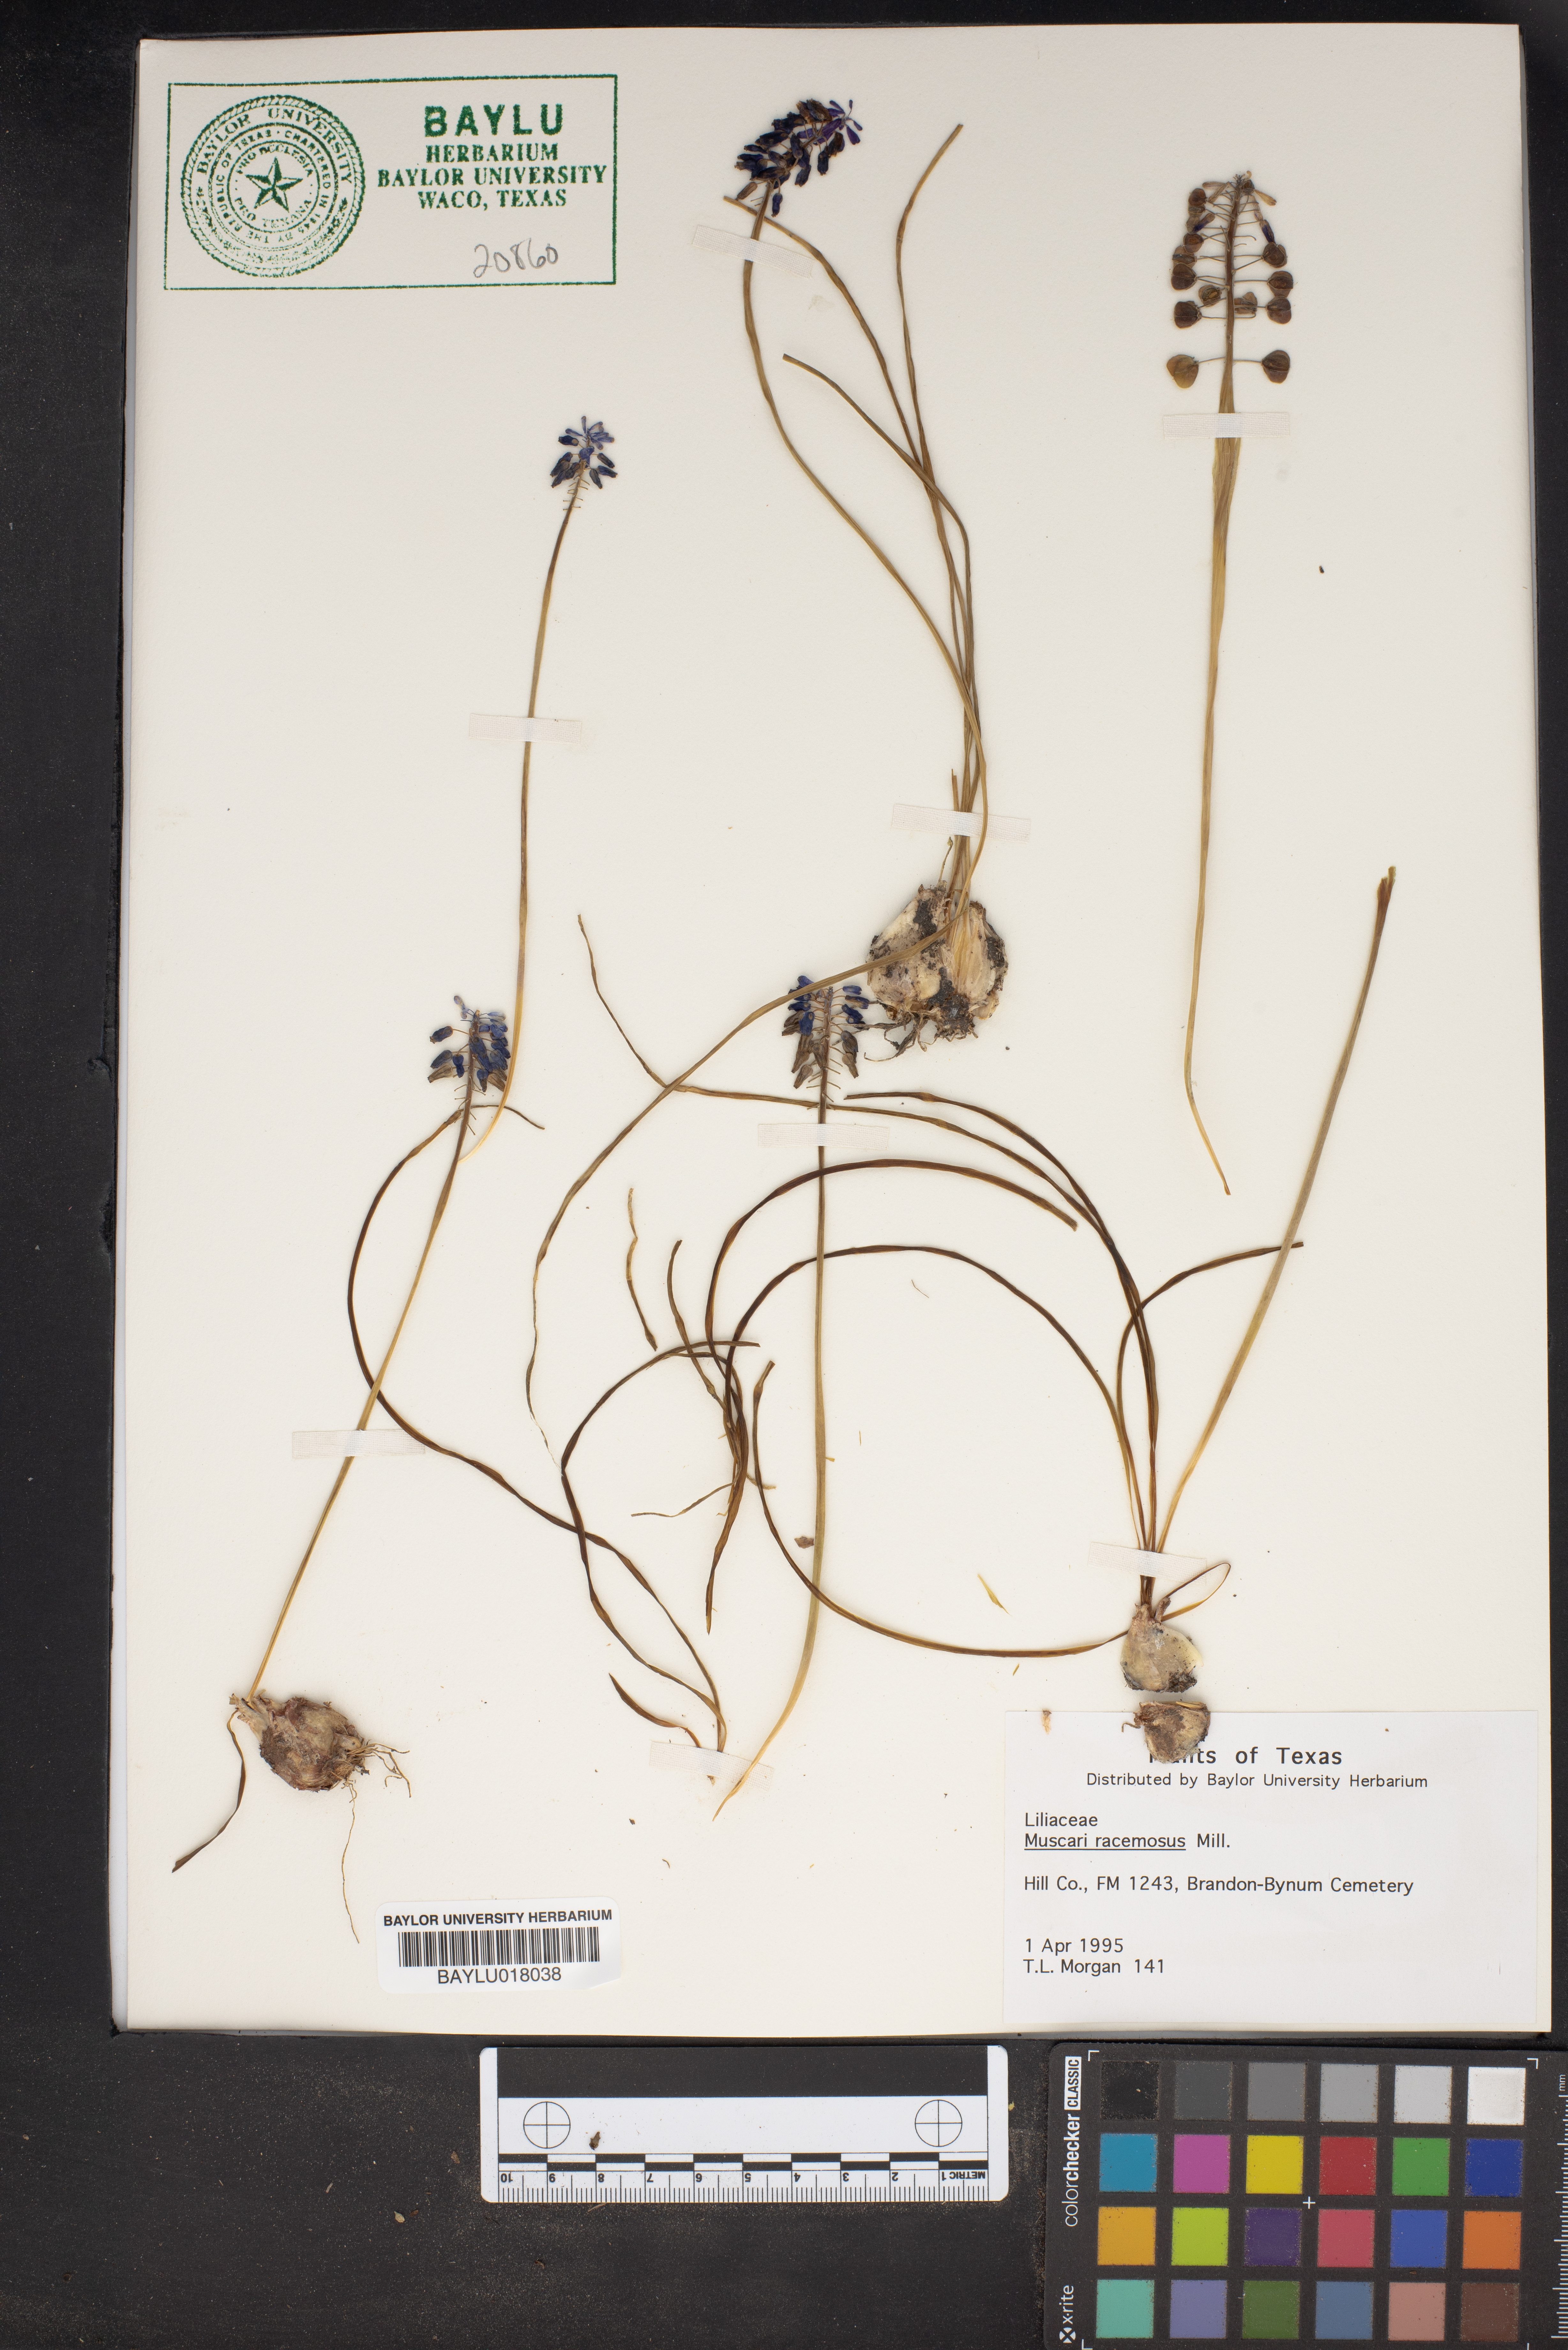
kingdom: Plantae
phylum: Tracheophyta
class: Liliopsida
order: Asparagales
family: Asparagaceae
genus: Muscarimia
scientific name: Muscarimia muscari
